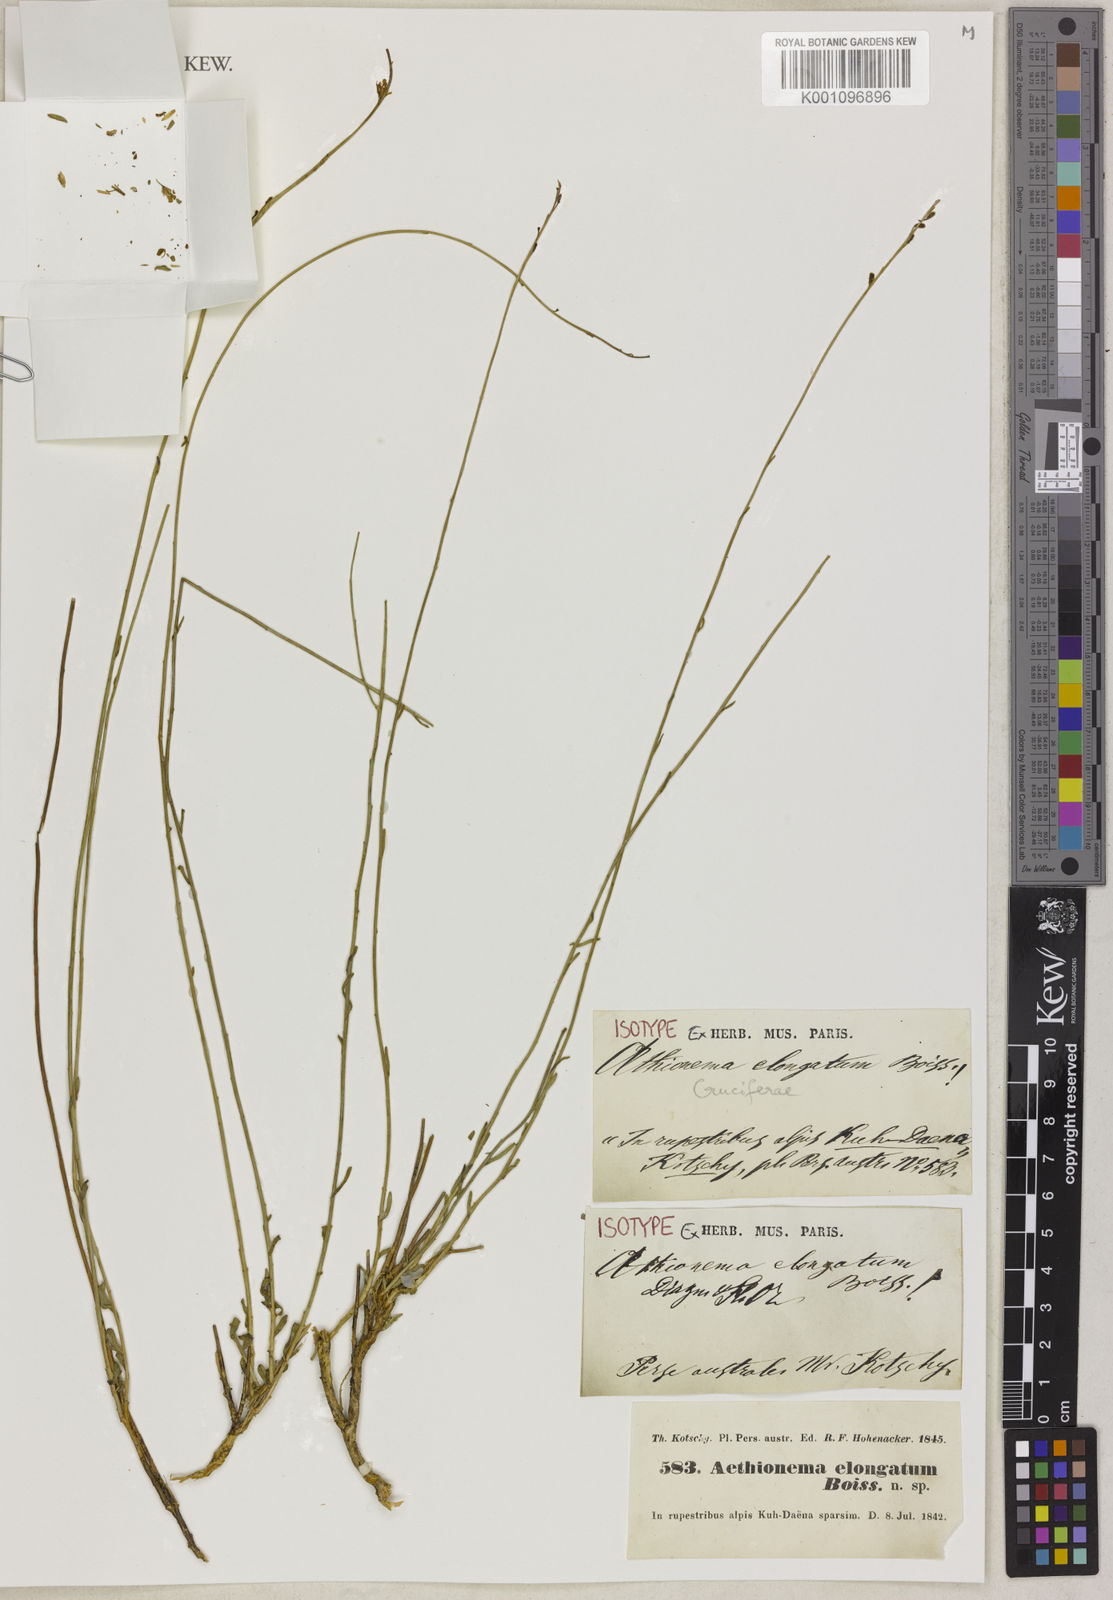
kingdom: Plantae
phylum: Tracheophyta
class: Magnoliopsida
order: Brassicales
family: Brassicaceae
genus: Aethionema
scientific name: Aethionema virgatum
